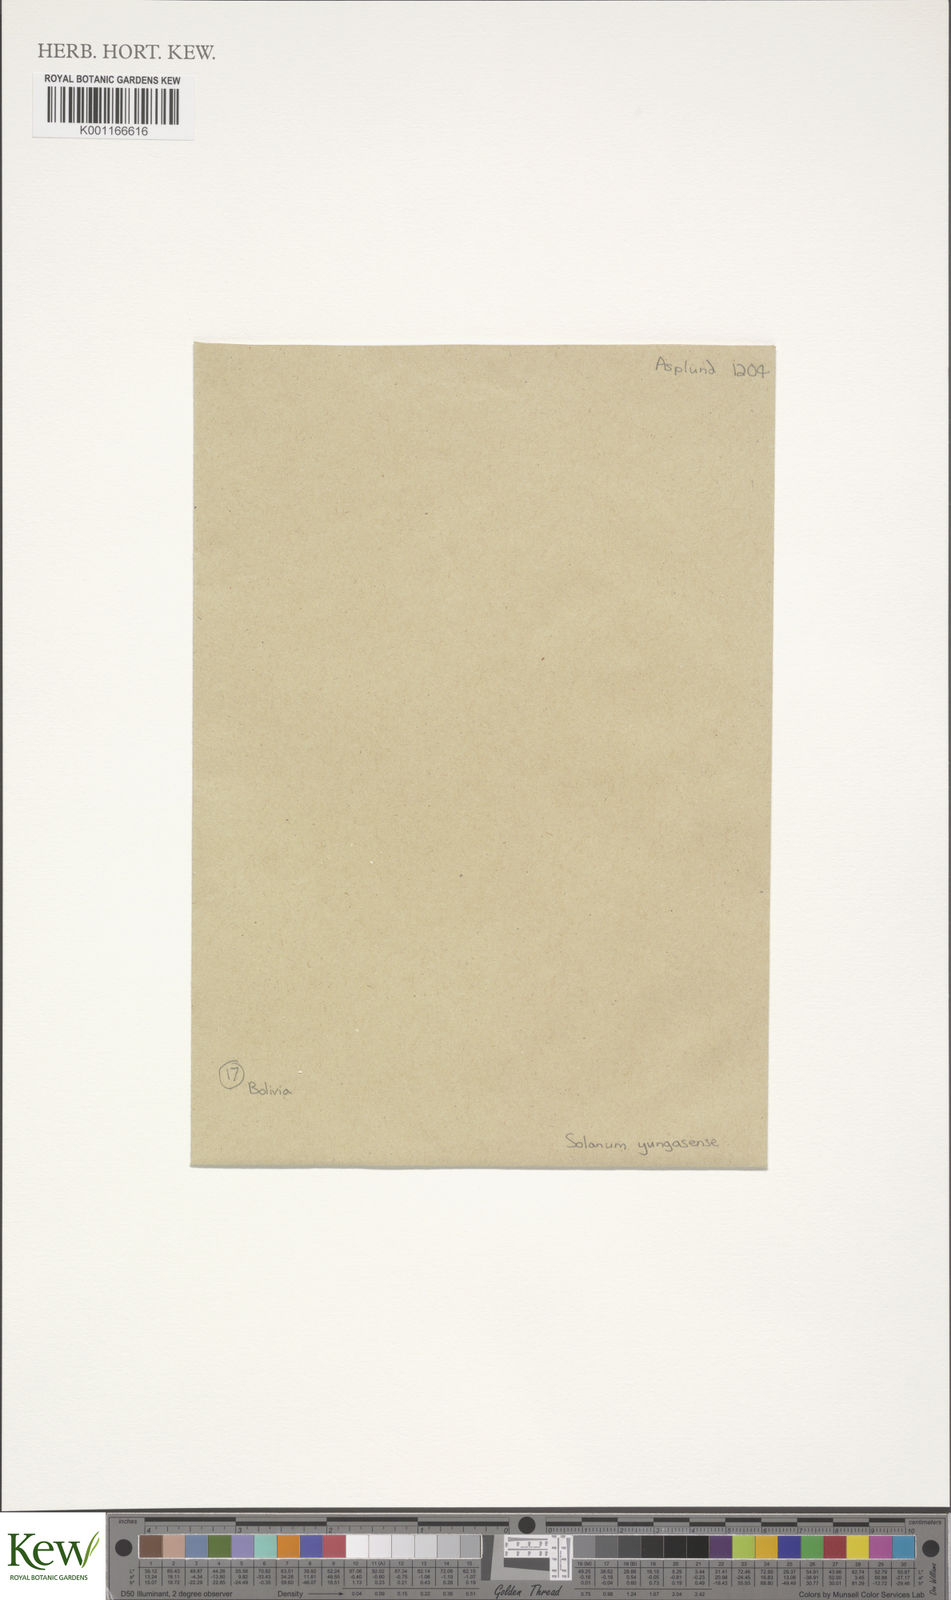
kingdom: Plantae
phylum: Tracheophyta
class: Magnoliopsida
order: Solanales
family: Solanaceae
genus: Solanum
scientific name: Solanum chacoense
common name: Chaco potato
